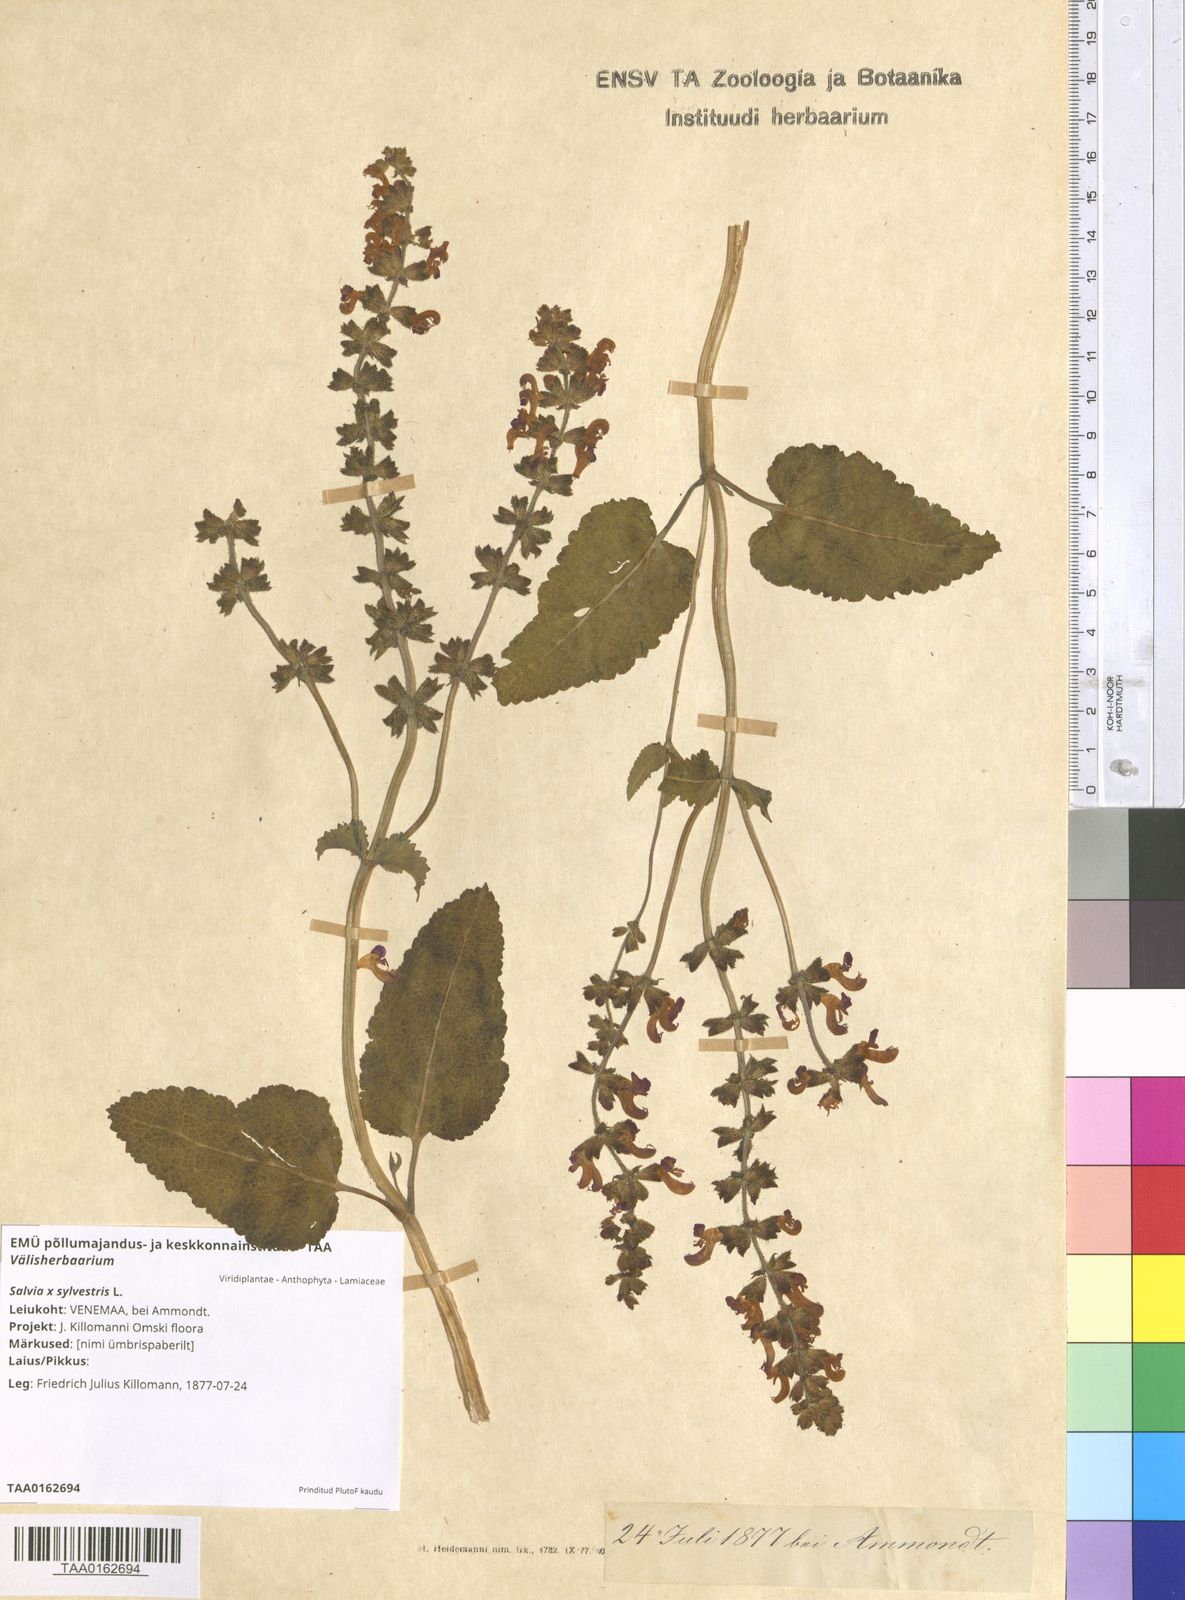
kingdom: Plantae
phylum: Tracheophyta
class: Magnoliopsida
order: Lamiales
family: Lamiaceae
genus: Salvia
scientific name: Salvia sylvestris
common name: Woodland sage
